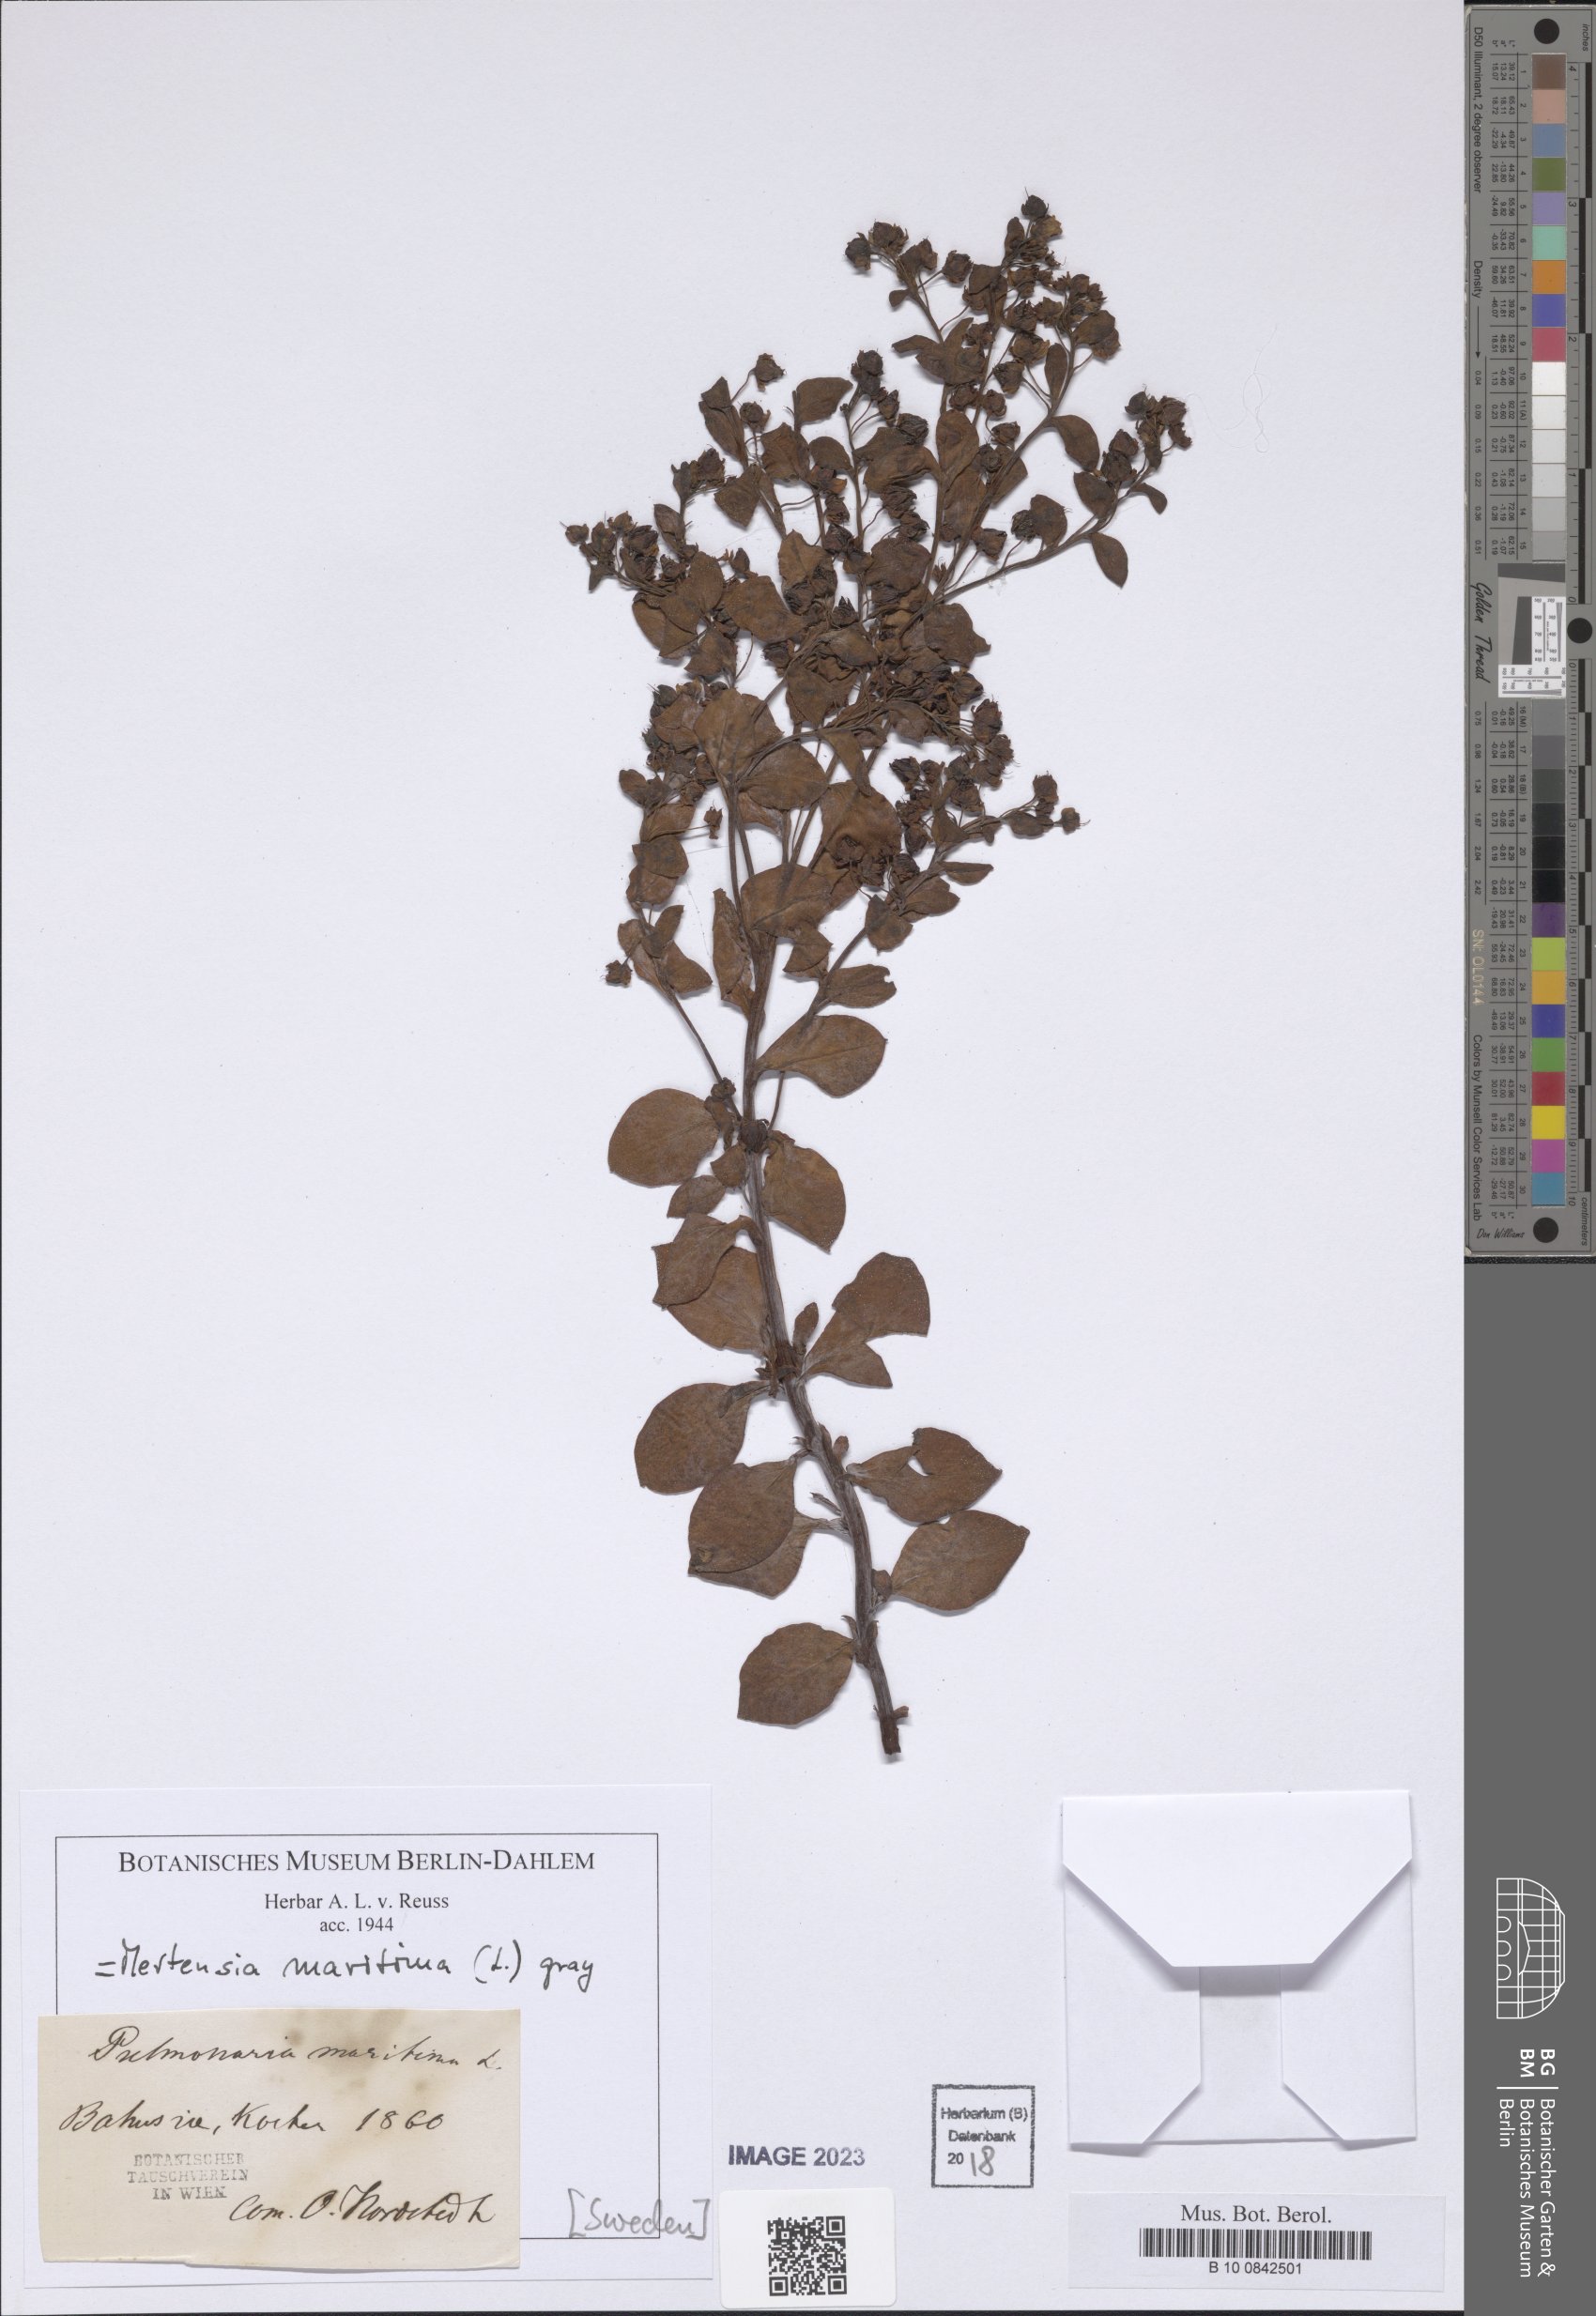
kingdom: Plantae
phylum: Tracheophyta
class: Magnoliopsida
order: Boraginales
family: Boraginaceae
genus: Mertensia
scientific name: Mertensia maritima
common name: Oysterplant
